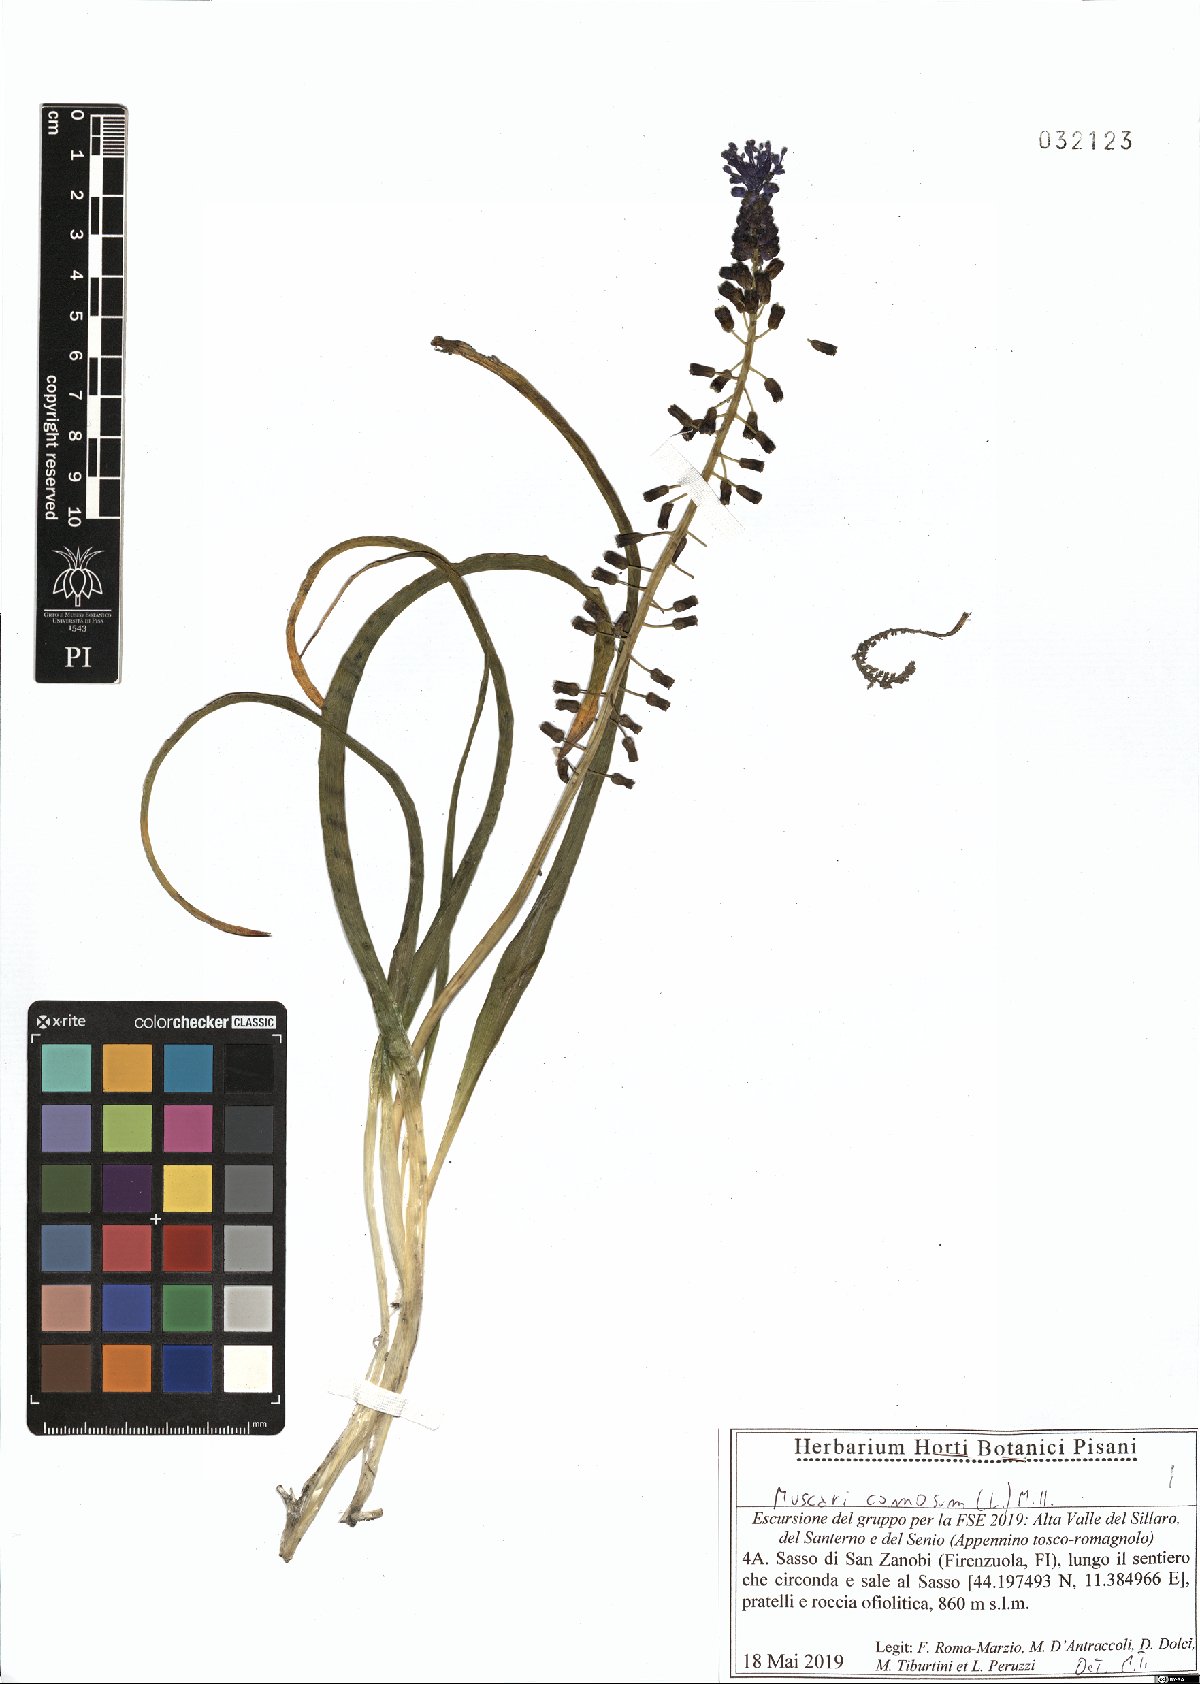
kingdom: Plantae
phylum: Tracheophyta
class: Liliopsida
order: Asparagales
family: Asparagaceae
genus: Muscari
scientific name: Muscari comosum
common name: Tassel hyacinth
